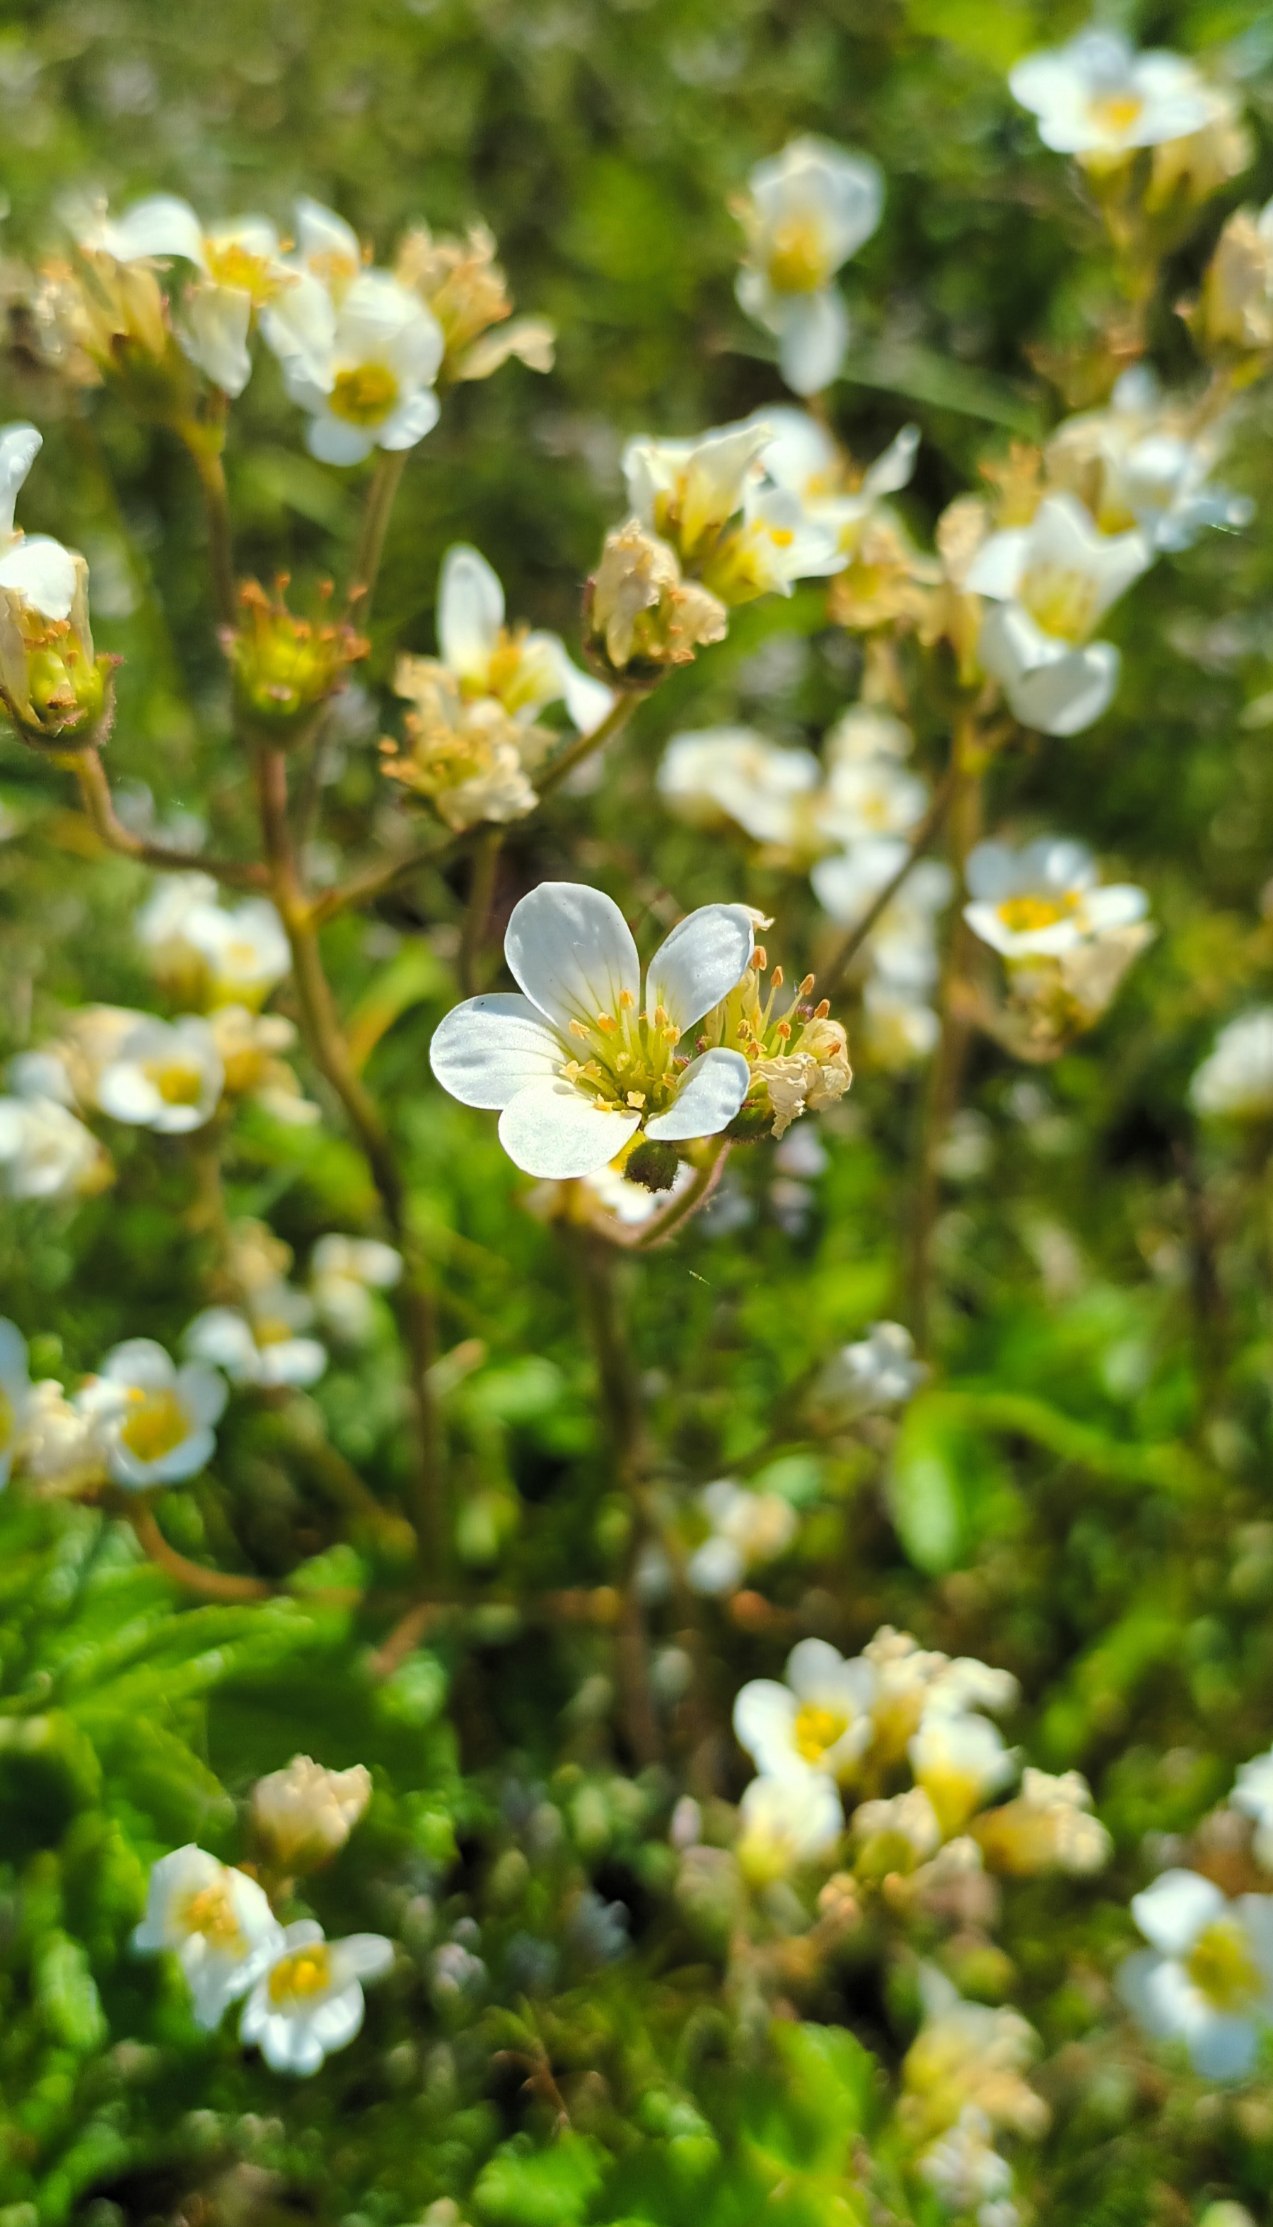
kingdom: Plantae
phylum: Tracheophyta
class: Magnoliopsida
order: Saxifragales
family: Saxifragaceae
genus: Saxifraga
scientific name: Saxifraga granulata
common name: Kornet stenbræk
